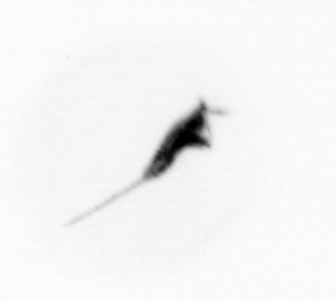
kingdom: Animalia
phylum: Arthropoda
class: Copepoda
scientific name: Copepoda
